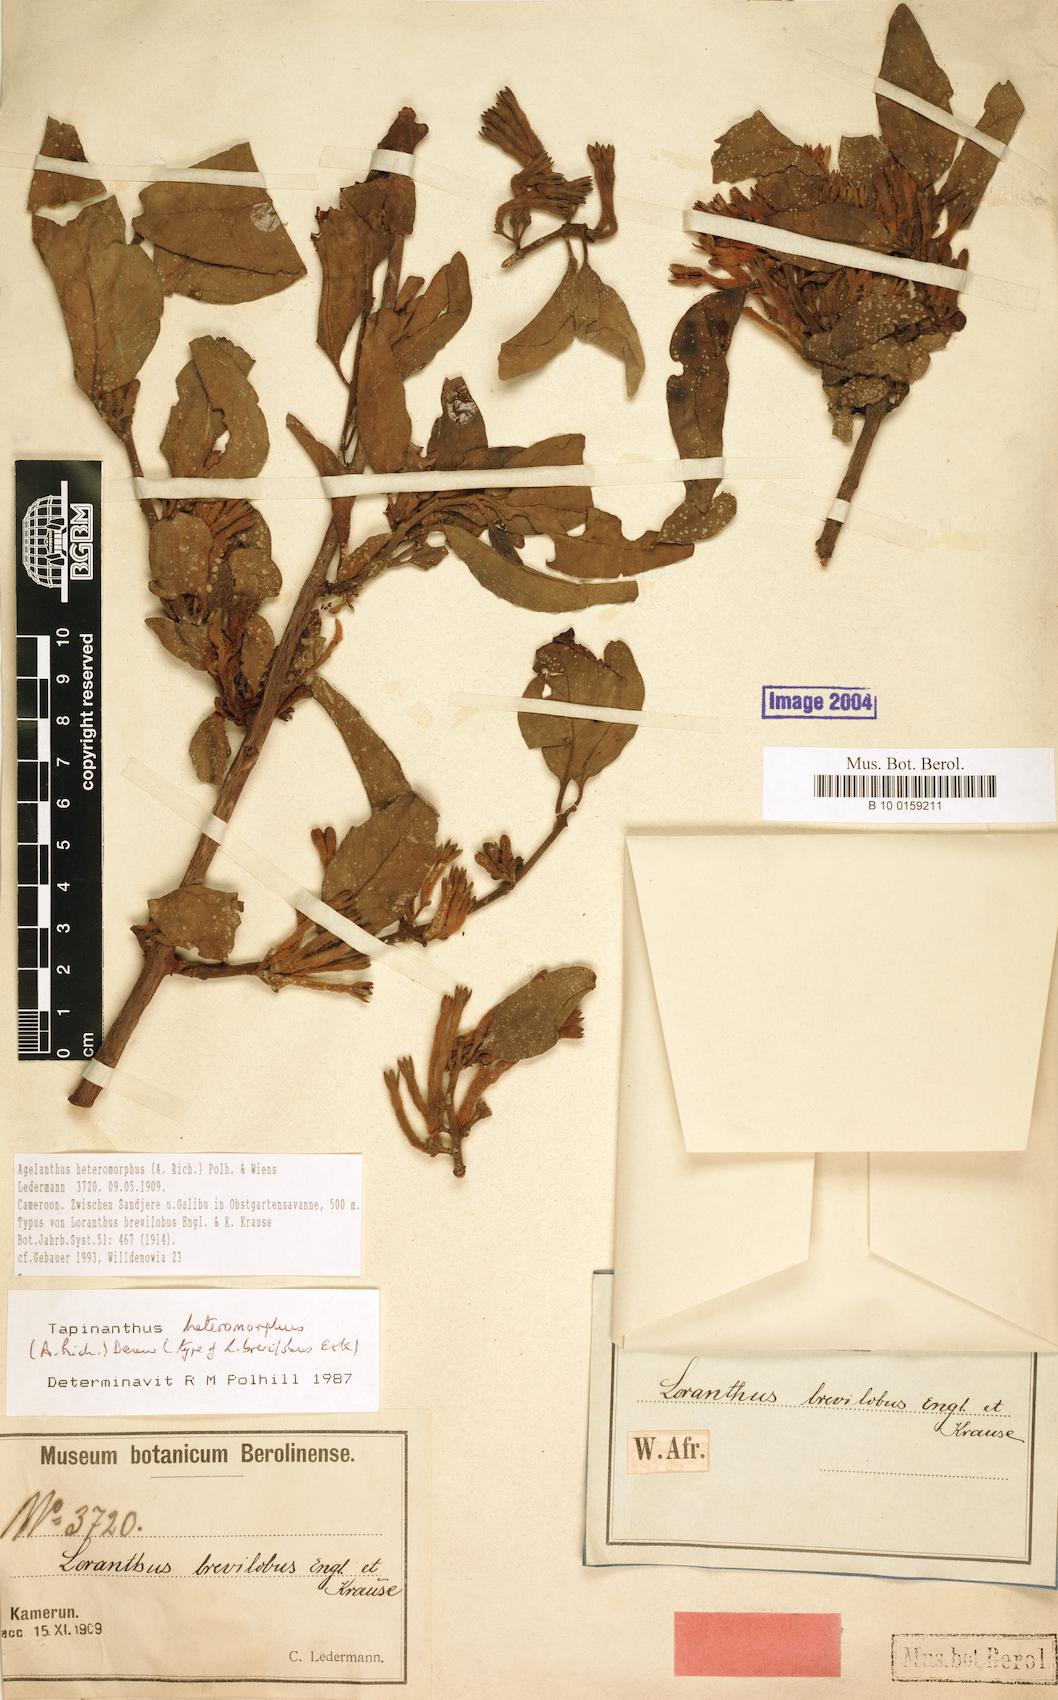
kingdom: Plantae
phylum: Tracheophyta
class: Magnoliopsida
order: Santalales
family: Loranthaceae
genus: Agelanthus
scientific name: Agelanthus heteromorphus
